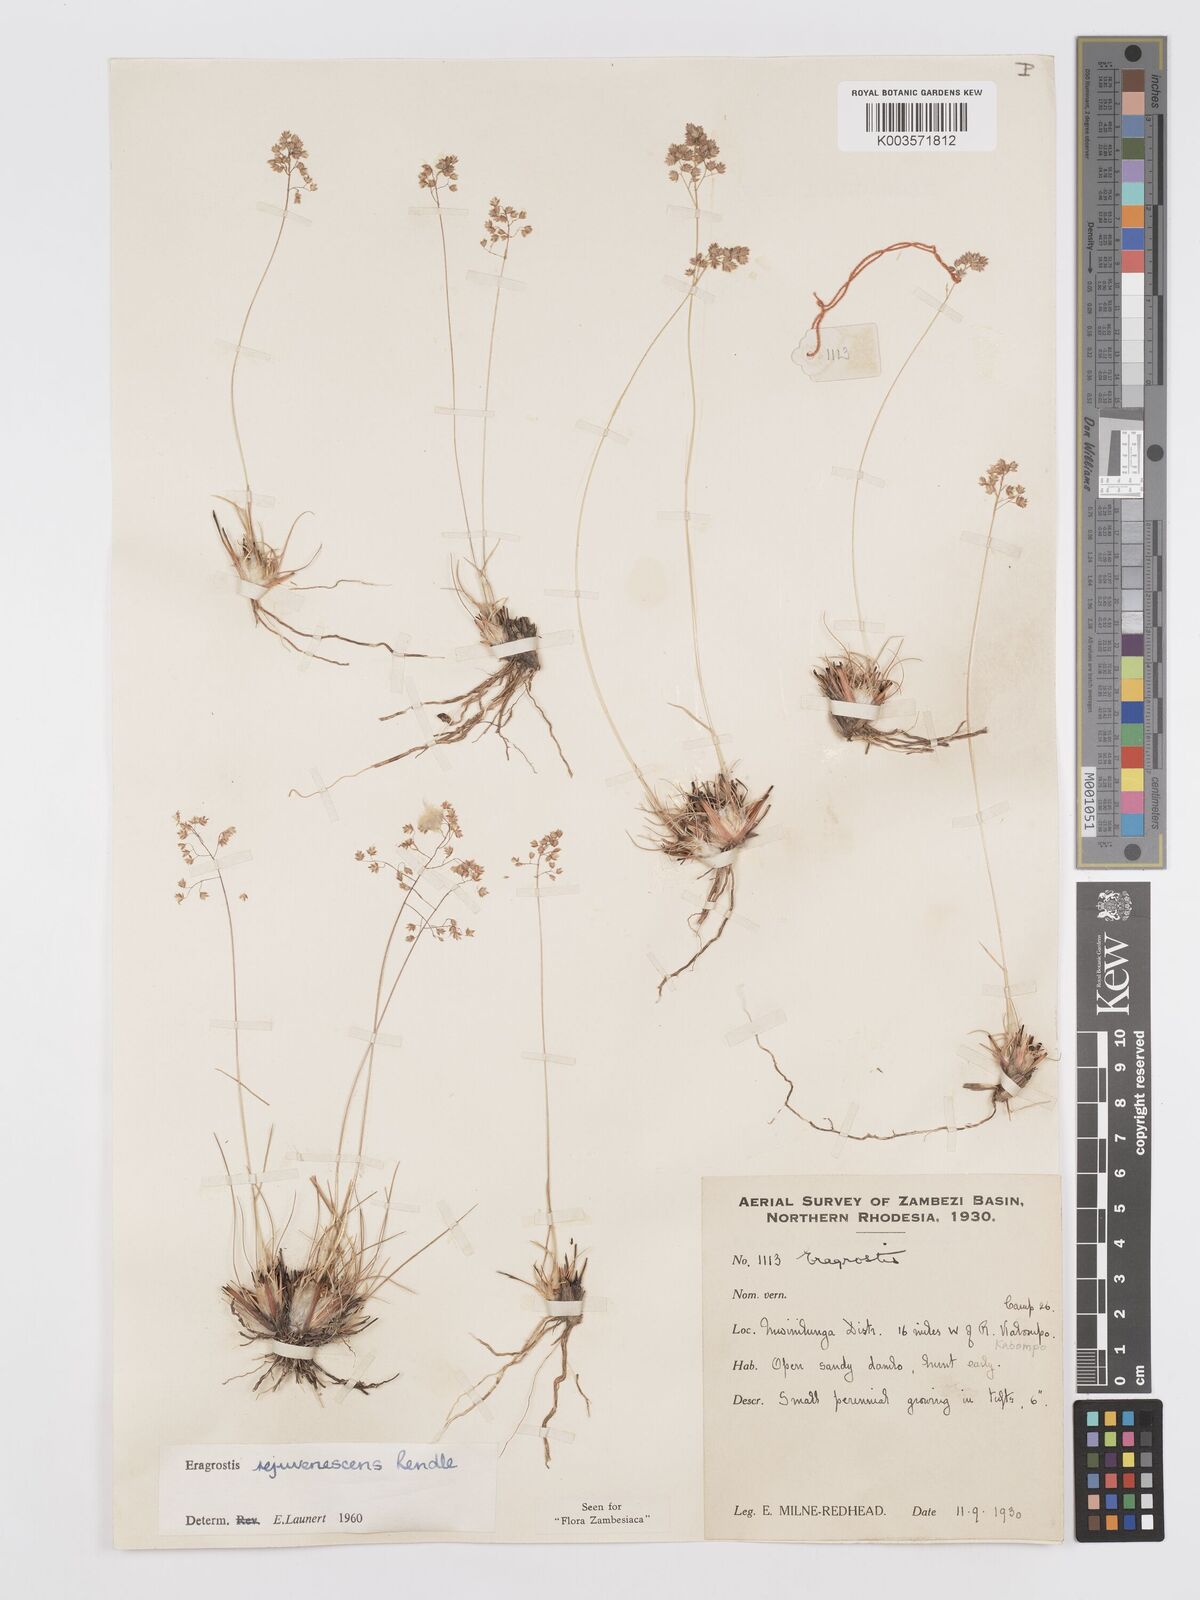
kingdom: Plantae
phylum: Tracheophyta
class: Liliopsida
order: Poales
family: Poaceae
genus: Eragrostis
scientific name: Eragrostis rejuvenescens
